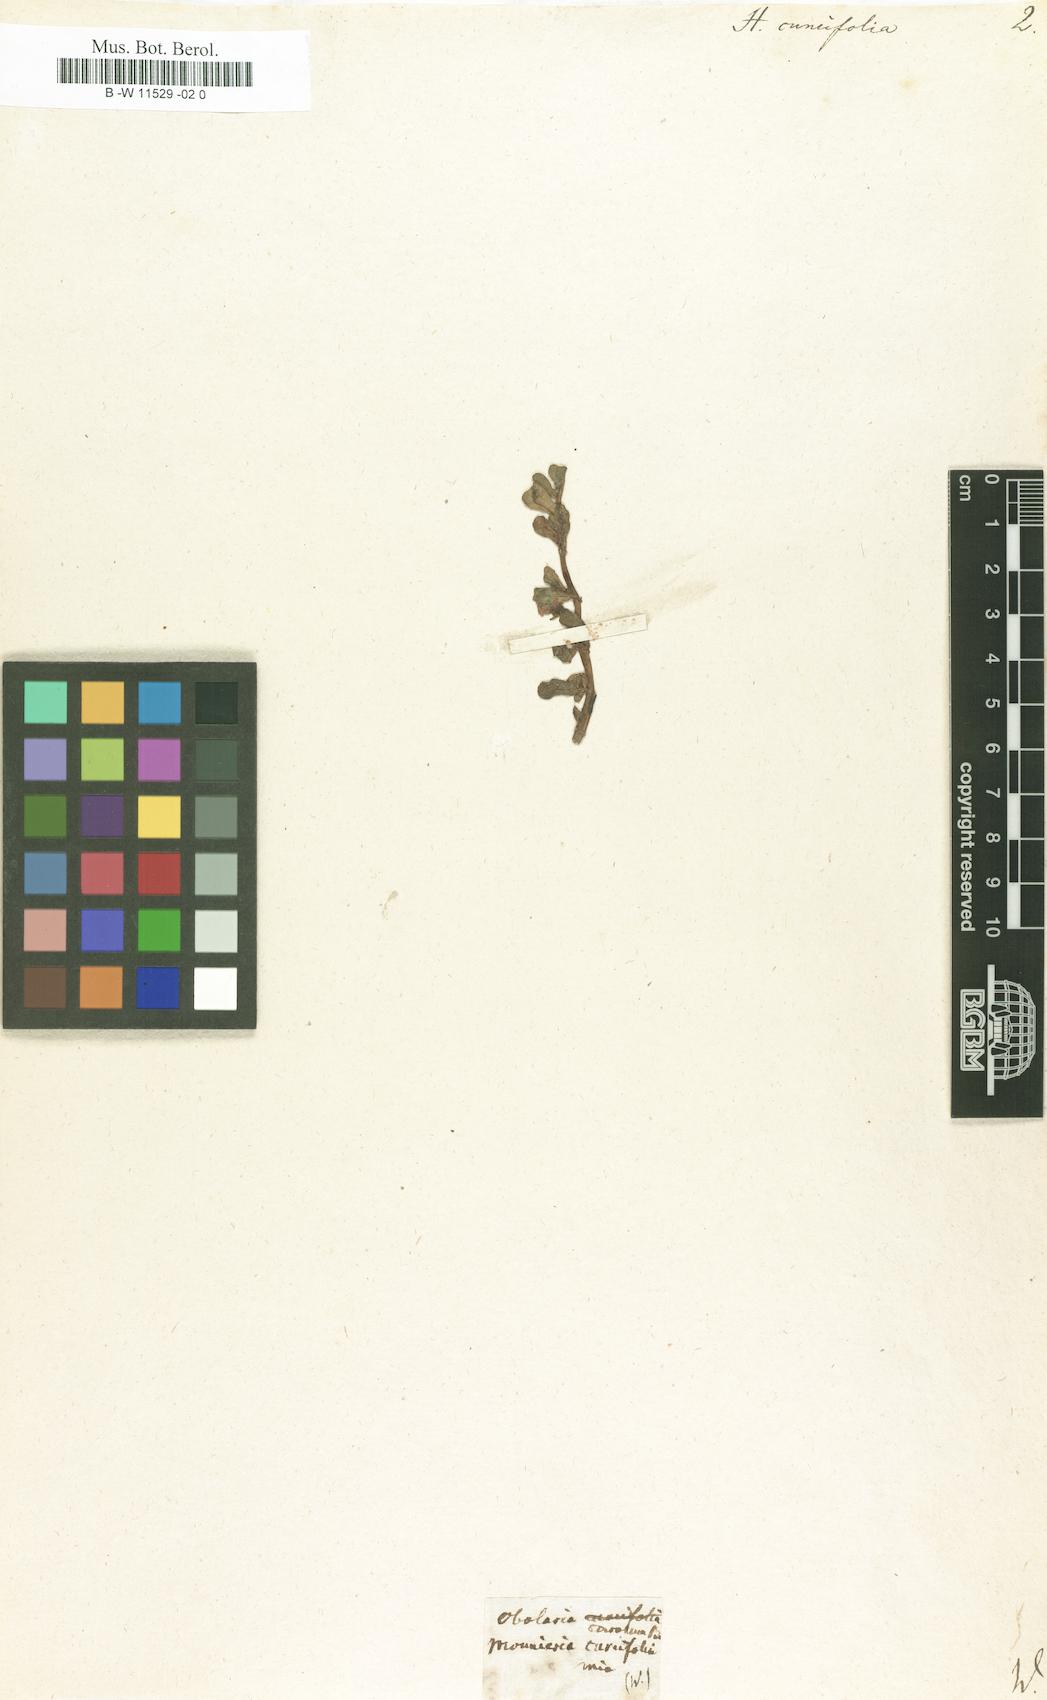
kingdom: Plantae
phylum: Tracheophyta
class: Magnoliopsida
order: Lamiales
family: Scrophulariaceae
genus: Herpestes
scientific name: Herpestes
